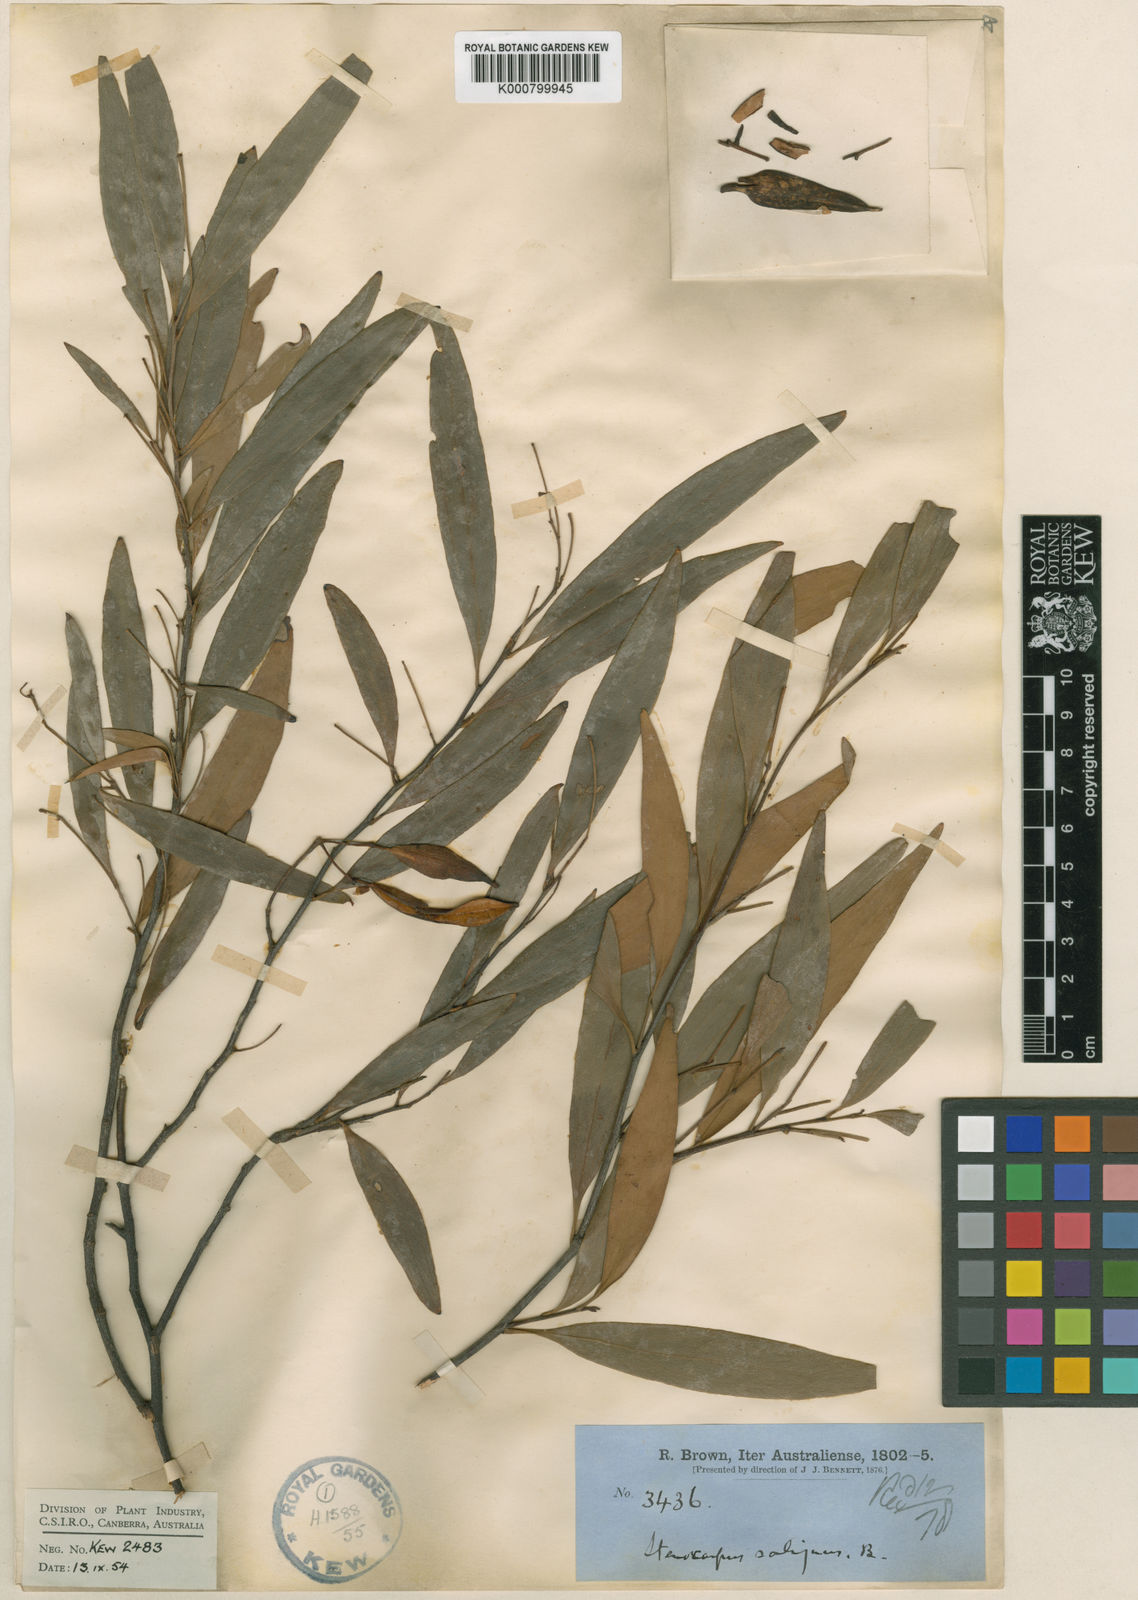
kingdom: Plantae
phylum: Tracheophyta
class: Magnoliopsida
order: Proteales
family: Proteaceae
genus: Stenocarpus
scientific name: Stenocarpus salignus
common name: Red silky-oak
